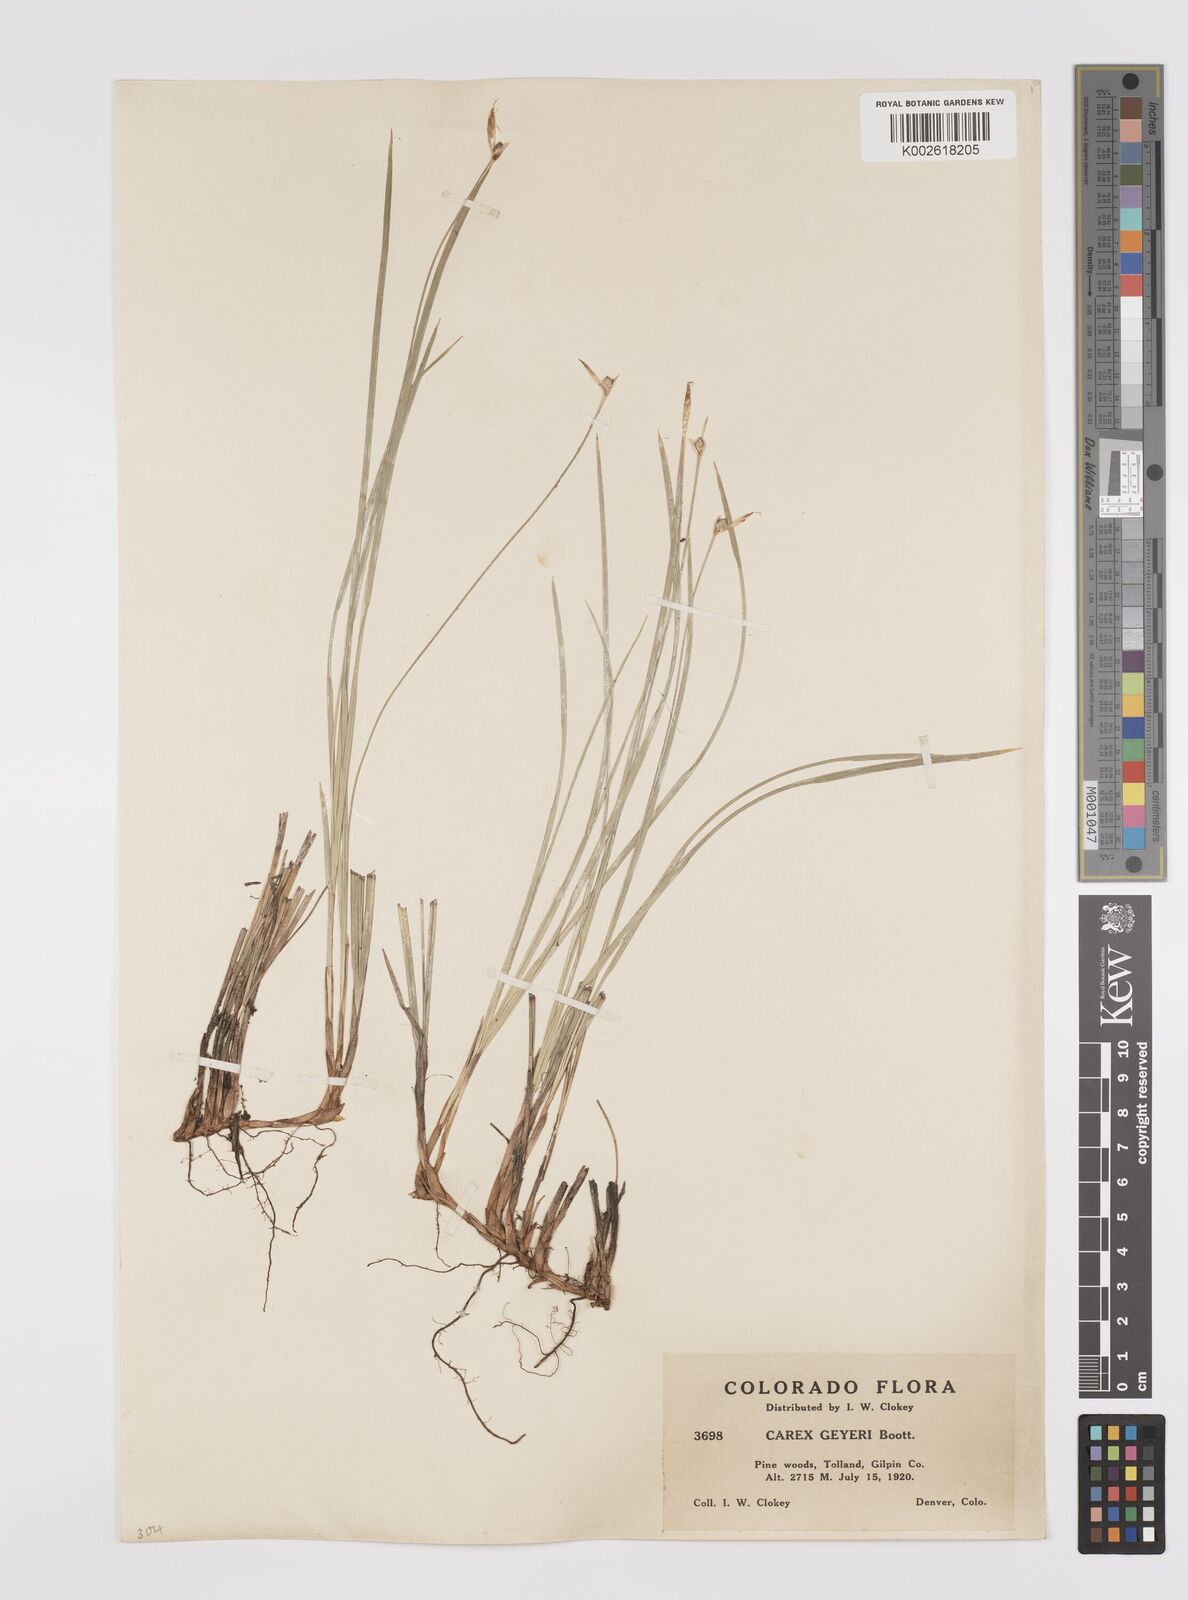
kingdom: Plantae
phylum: Tracheophyta
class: Liliopsida
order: Poales
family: Cyperaceae
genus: Carex
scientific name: Carex geyeri
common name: Elk sedge
